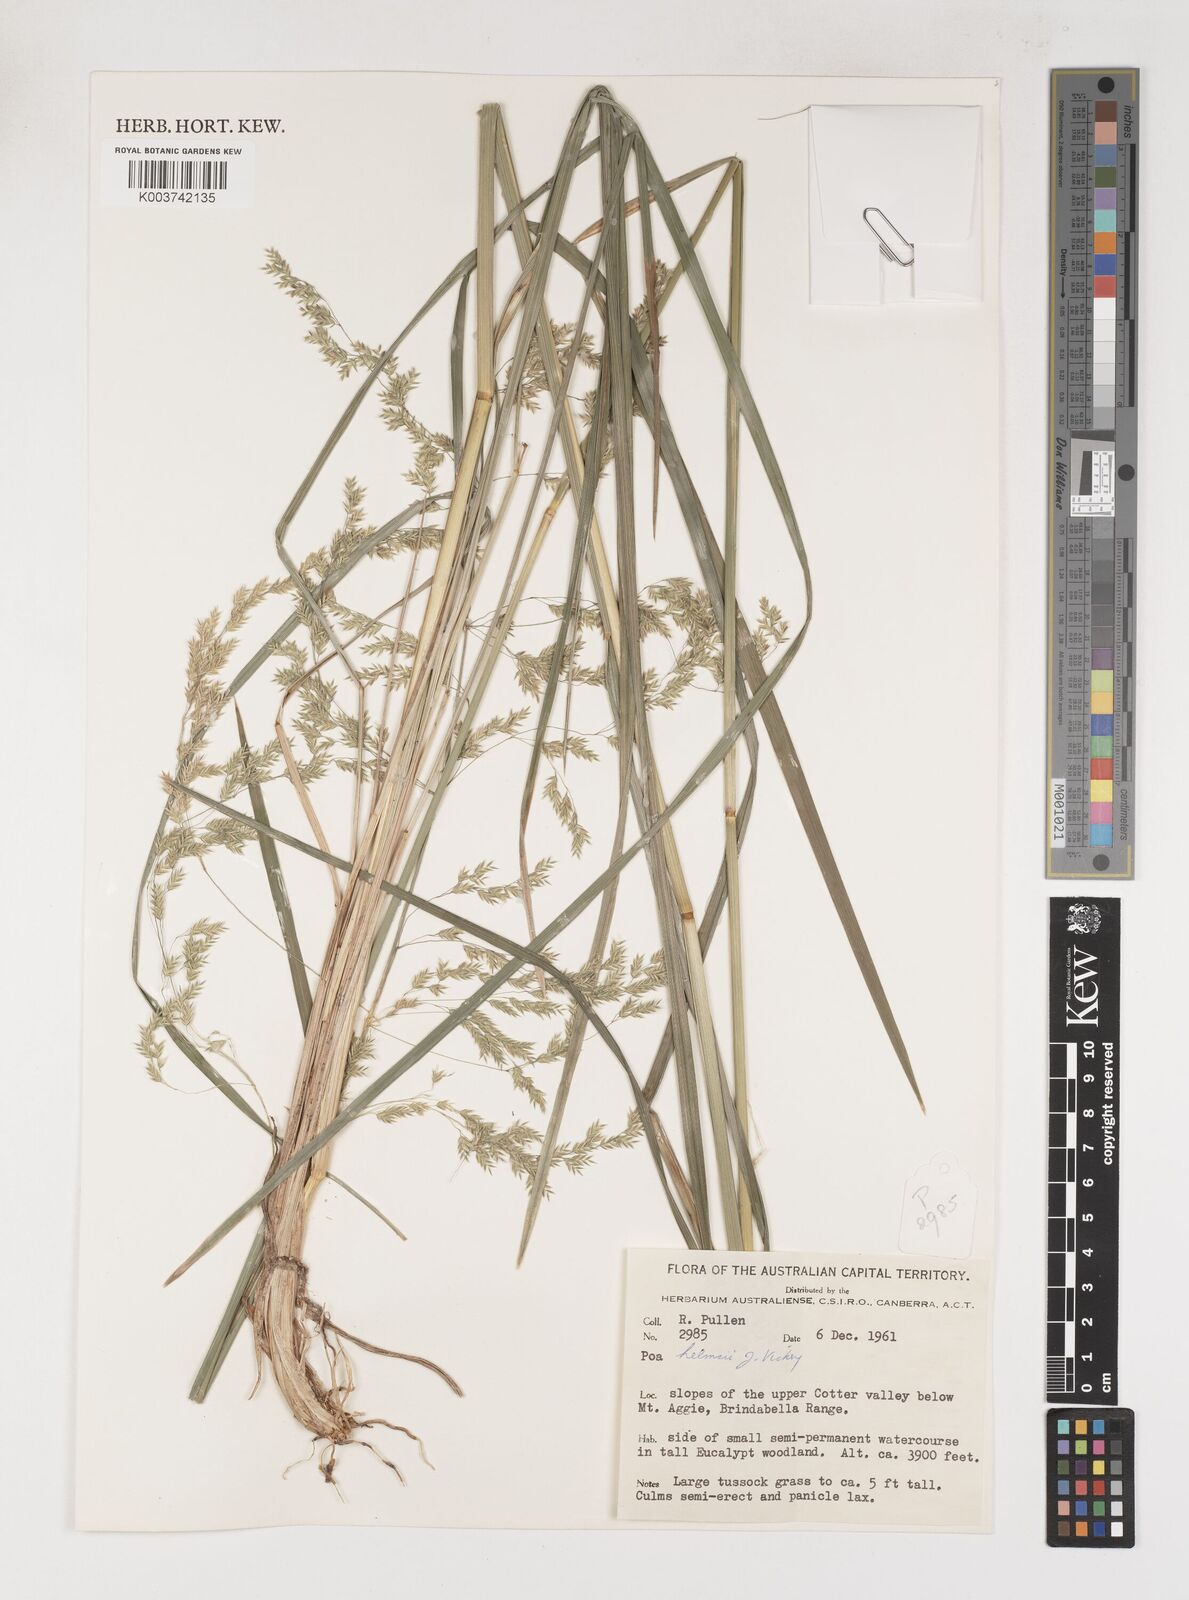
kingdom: Plantae
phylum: Tracheophyta
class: Liliopsida
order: Poales
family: Poaceae
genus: Poa
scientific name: Poa helmsii
